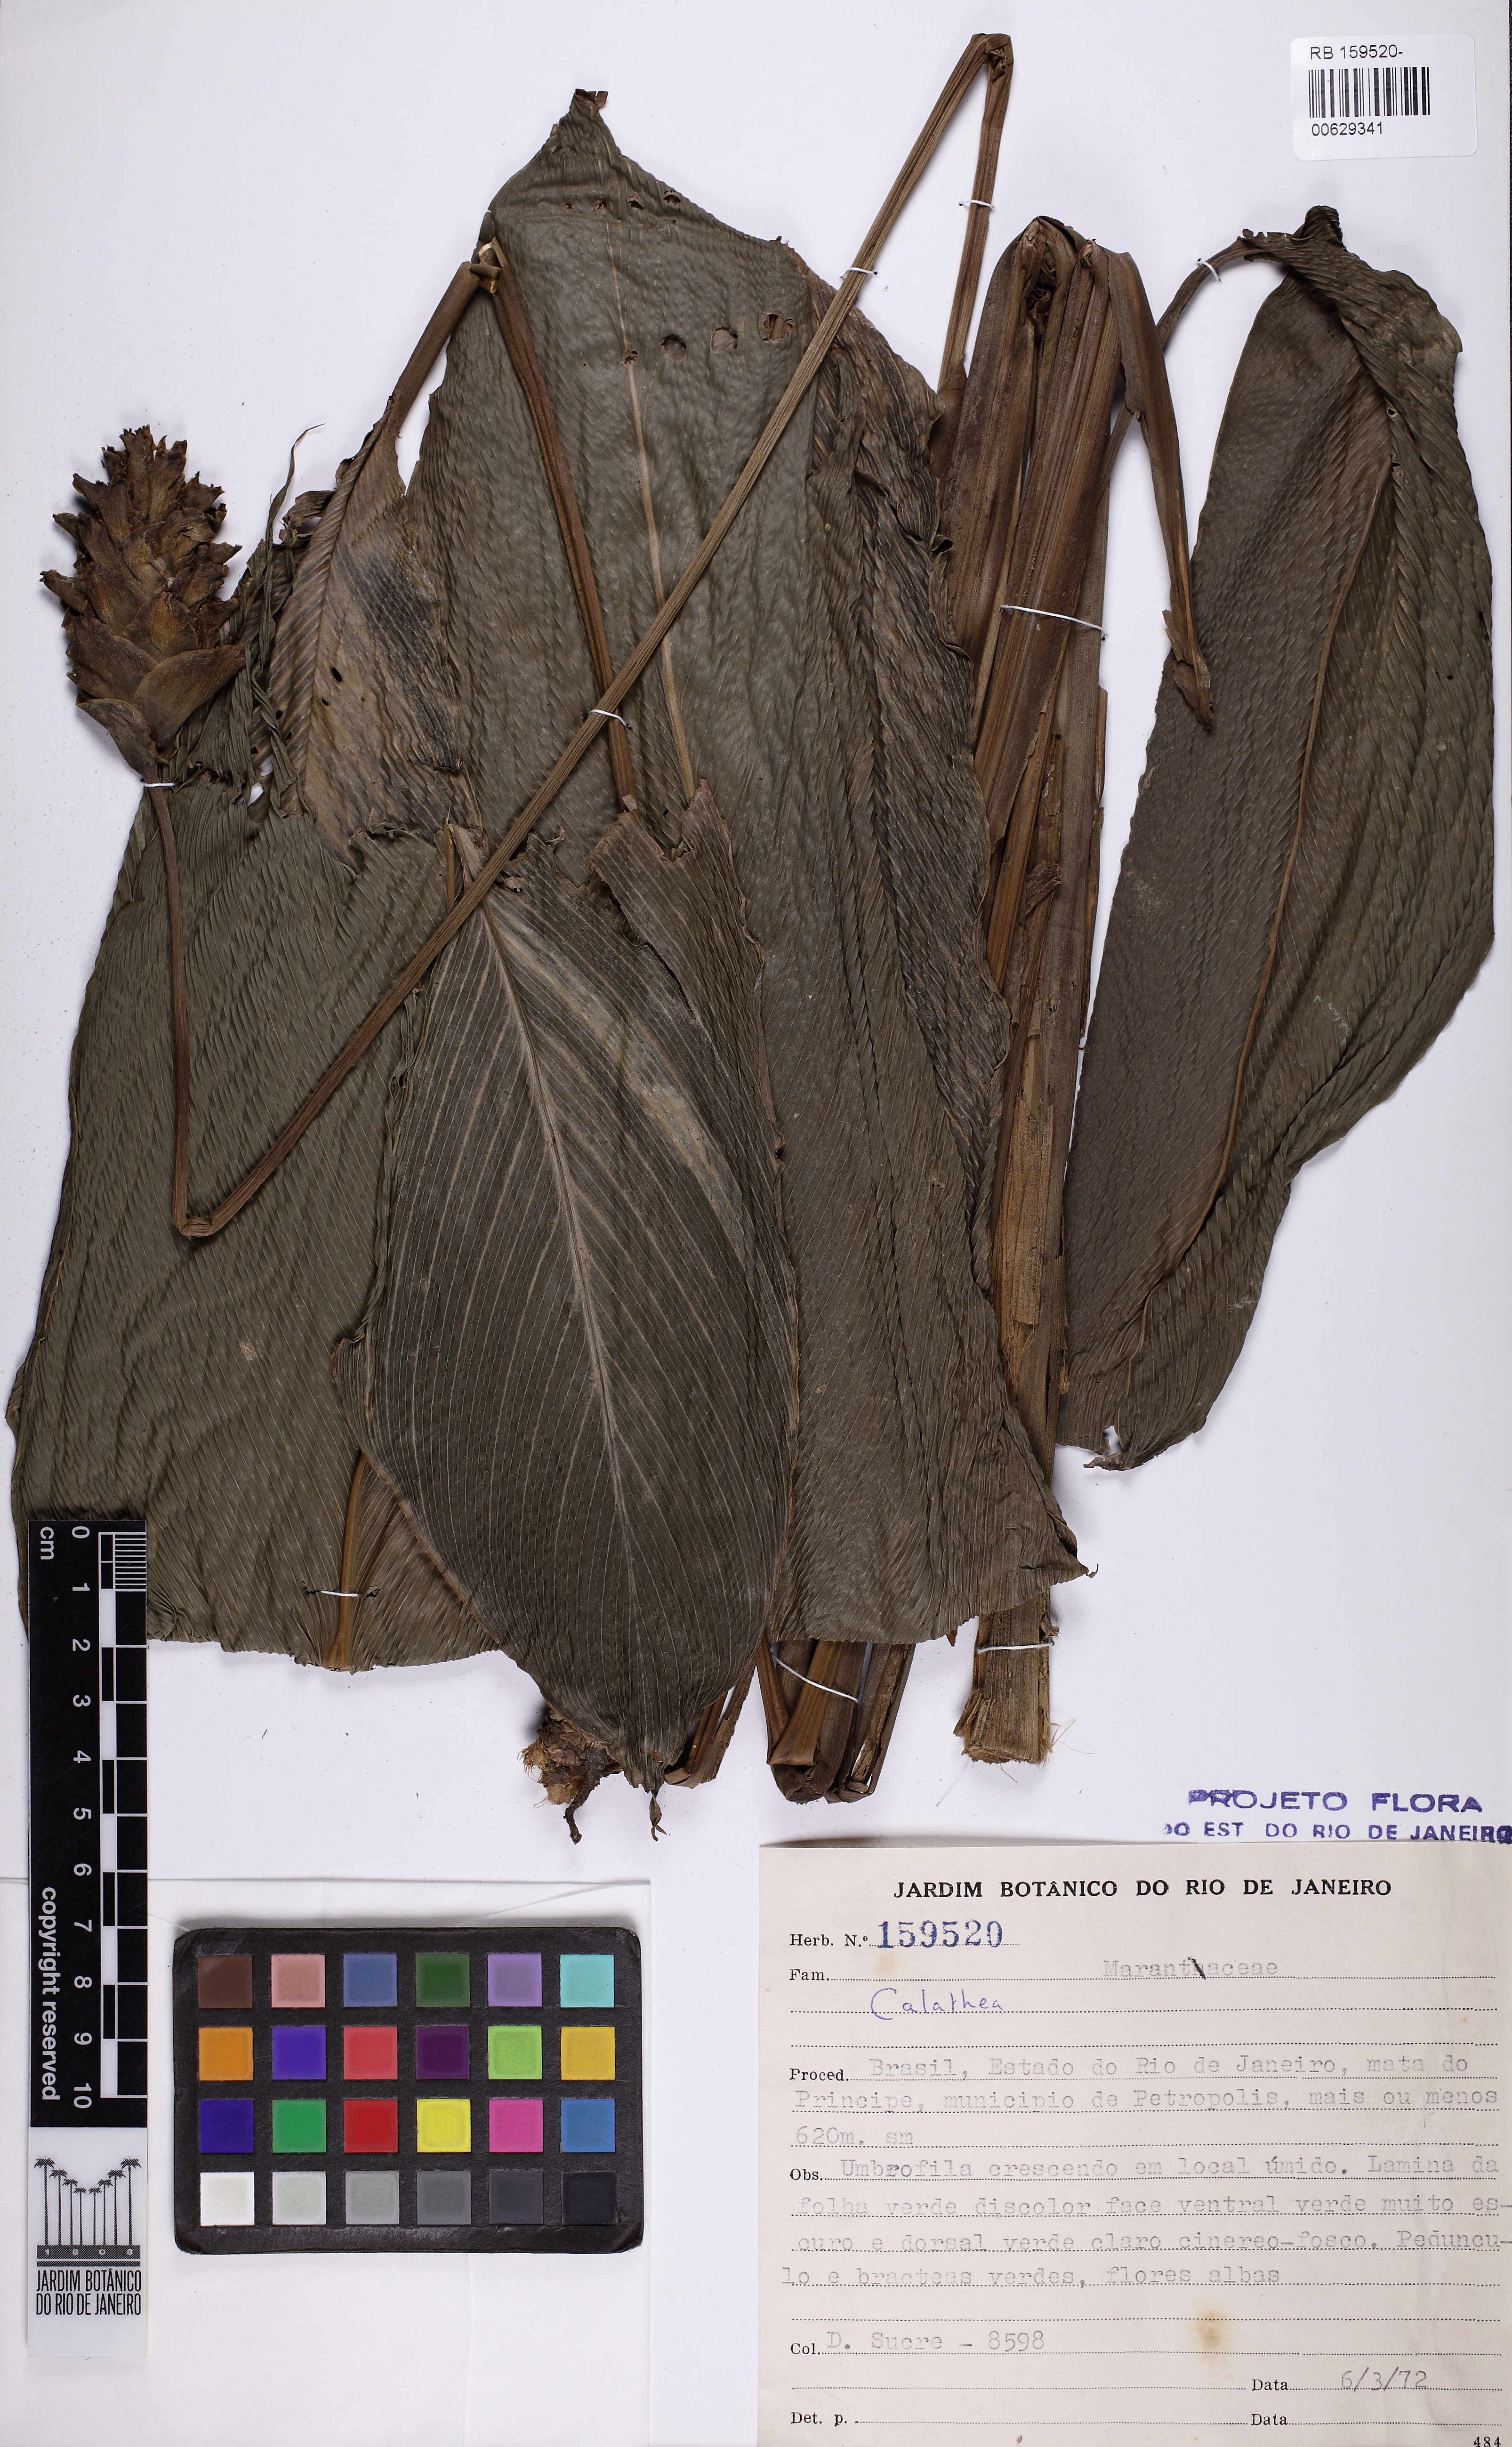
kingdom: Plantae
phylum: Tracheophyta
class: Liliopsida
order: Zingiberales
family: Marantaceae
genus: Calathea
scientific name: Calathea
